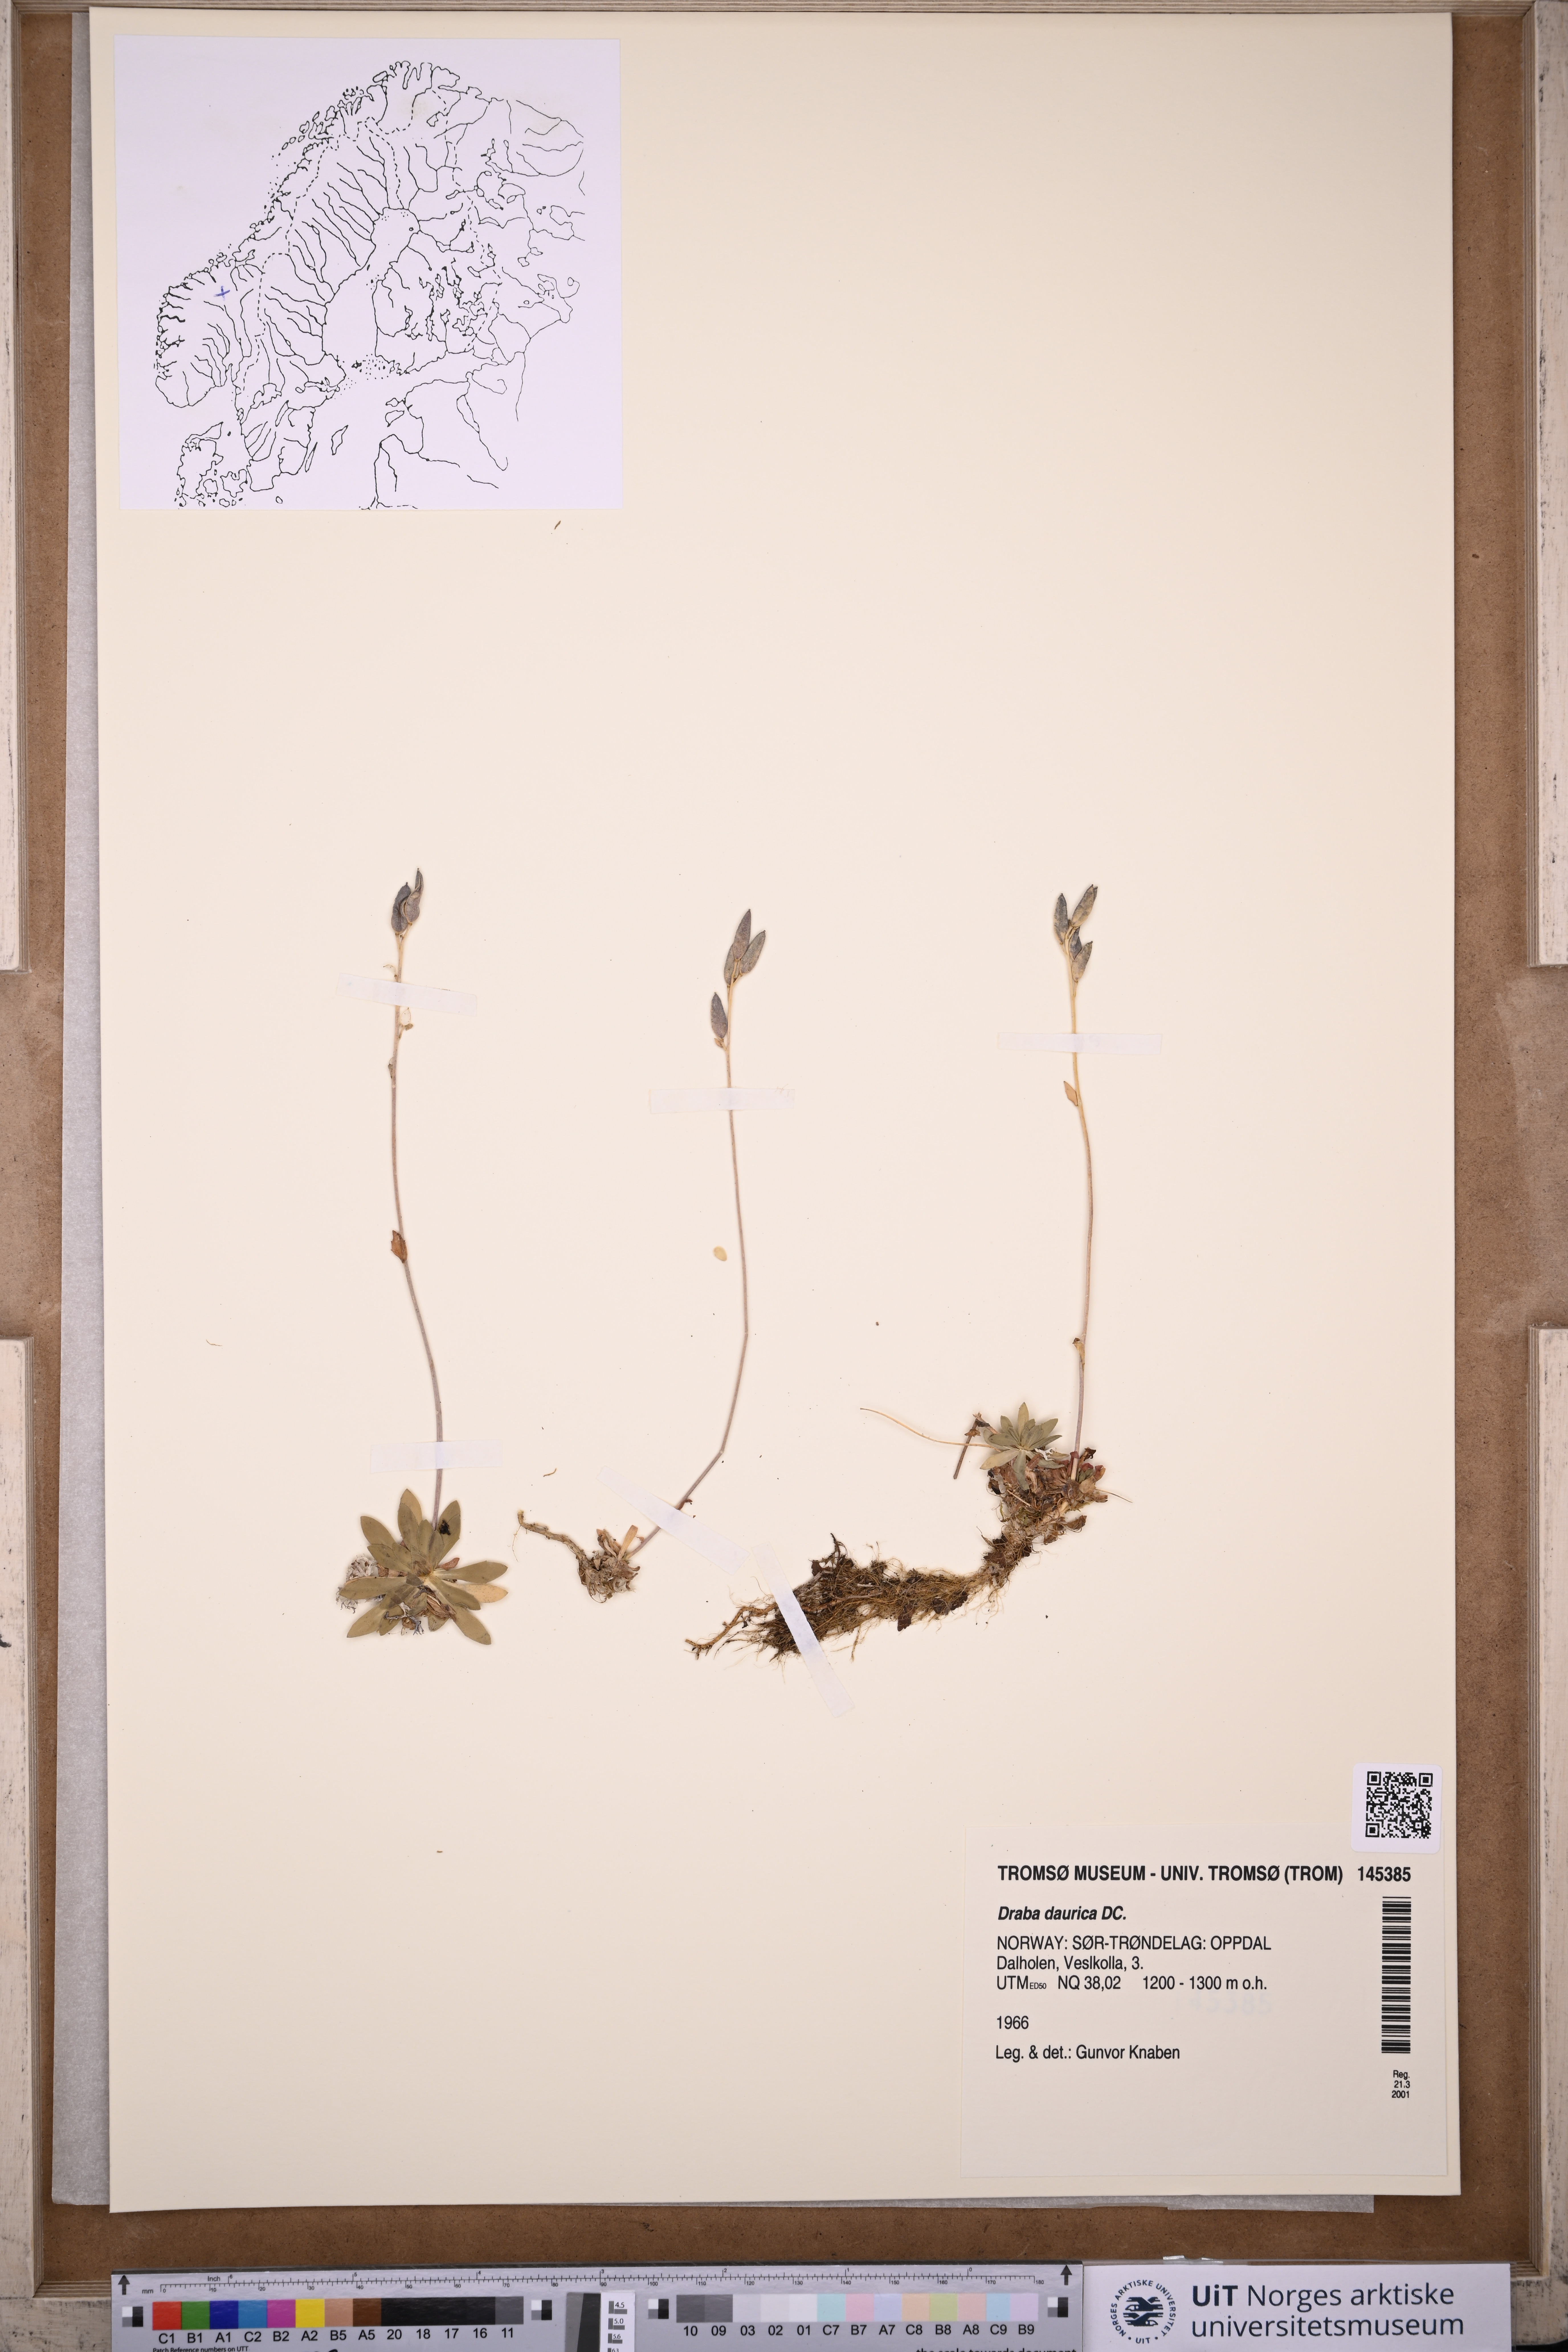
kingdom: Plantae
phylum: Tracheophyta
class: Magnoliopsida
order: Brassicales
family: Brassicaceae
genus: Draba
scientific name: Draba glabella
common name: Glaucous draba
